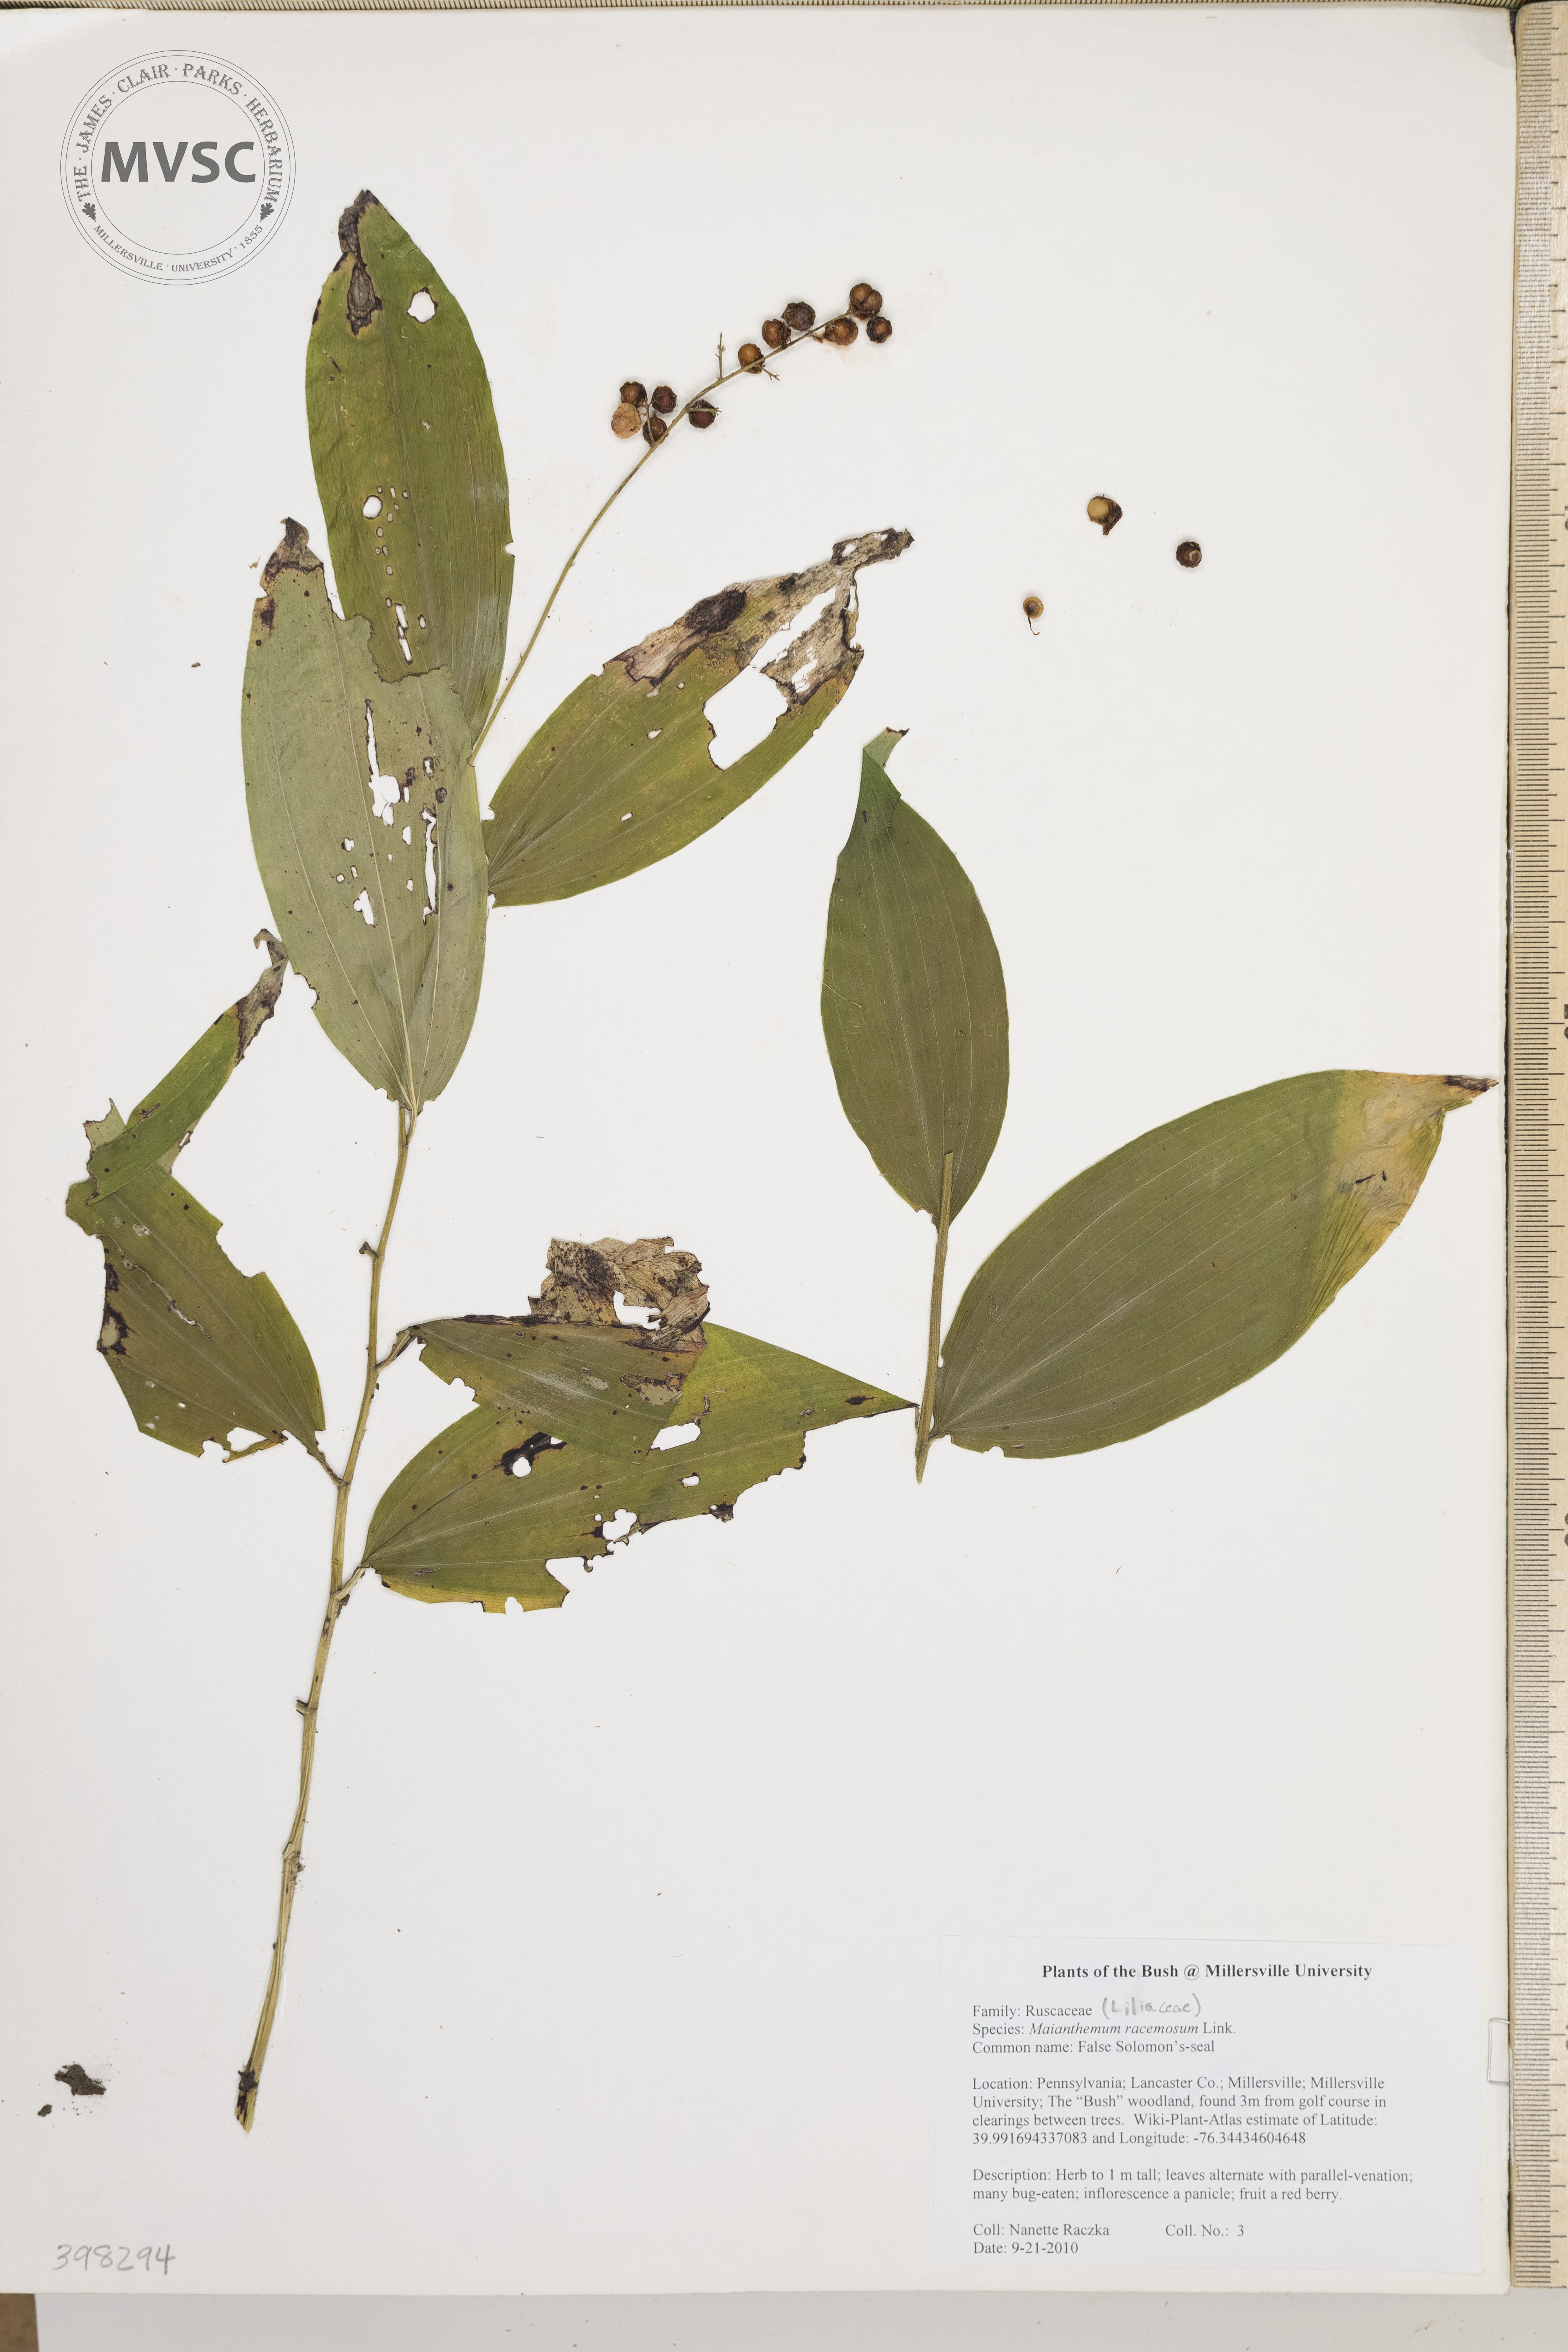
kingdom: Plantae
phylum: Tracheophyta
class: Liliopsida
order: Asparagales
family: Asparagaceae
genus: Maianthemum
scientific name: Maianthemum racemosum
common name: False solomon's-seal
